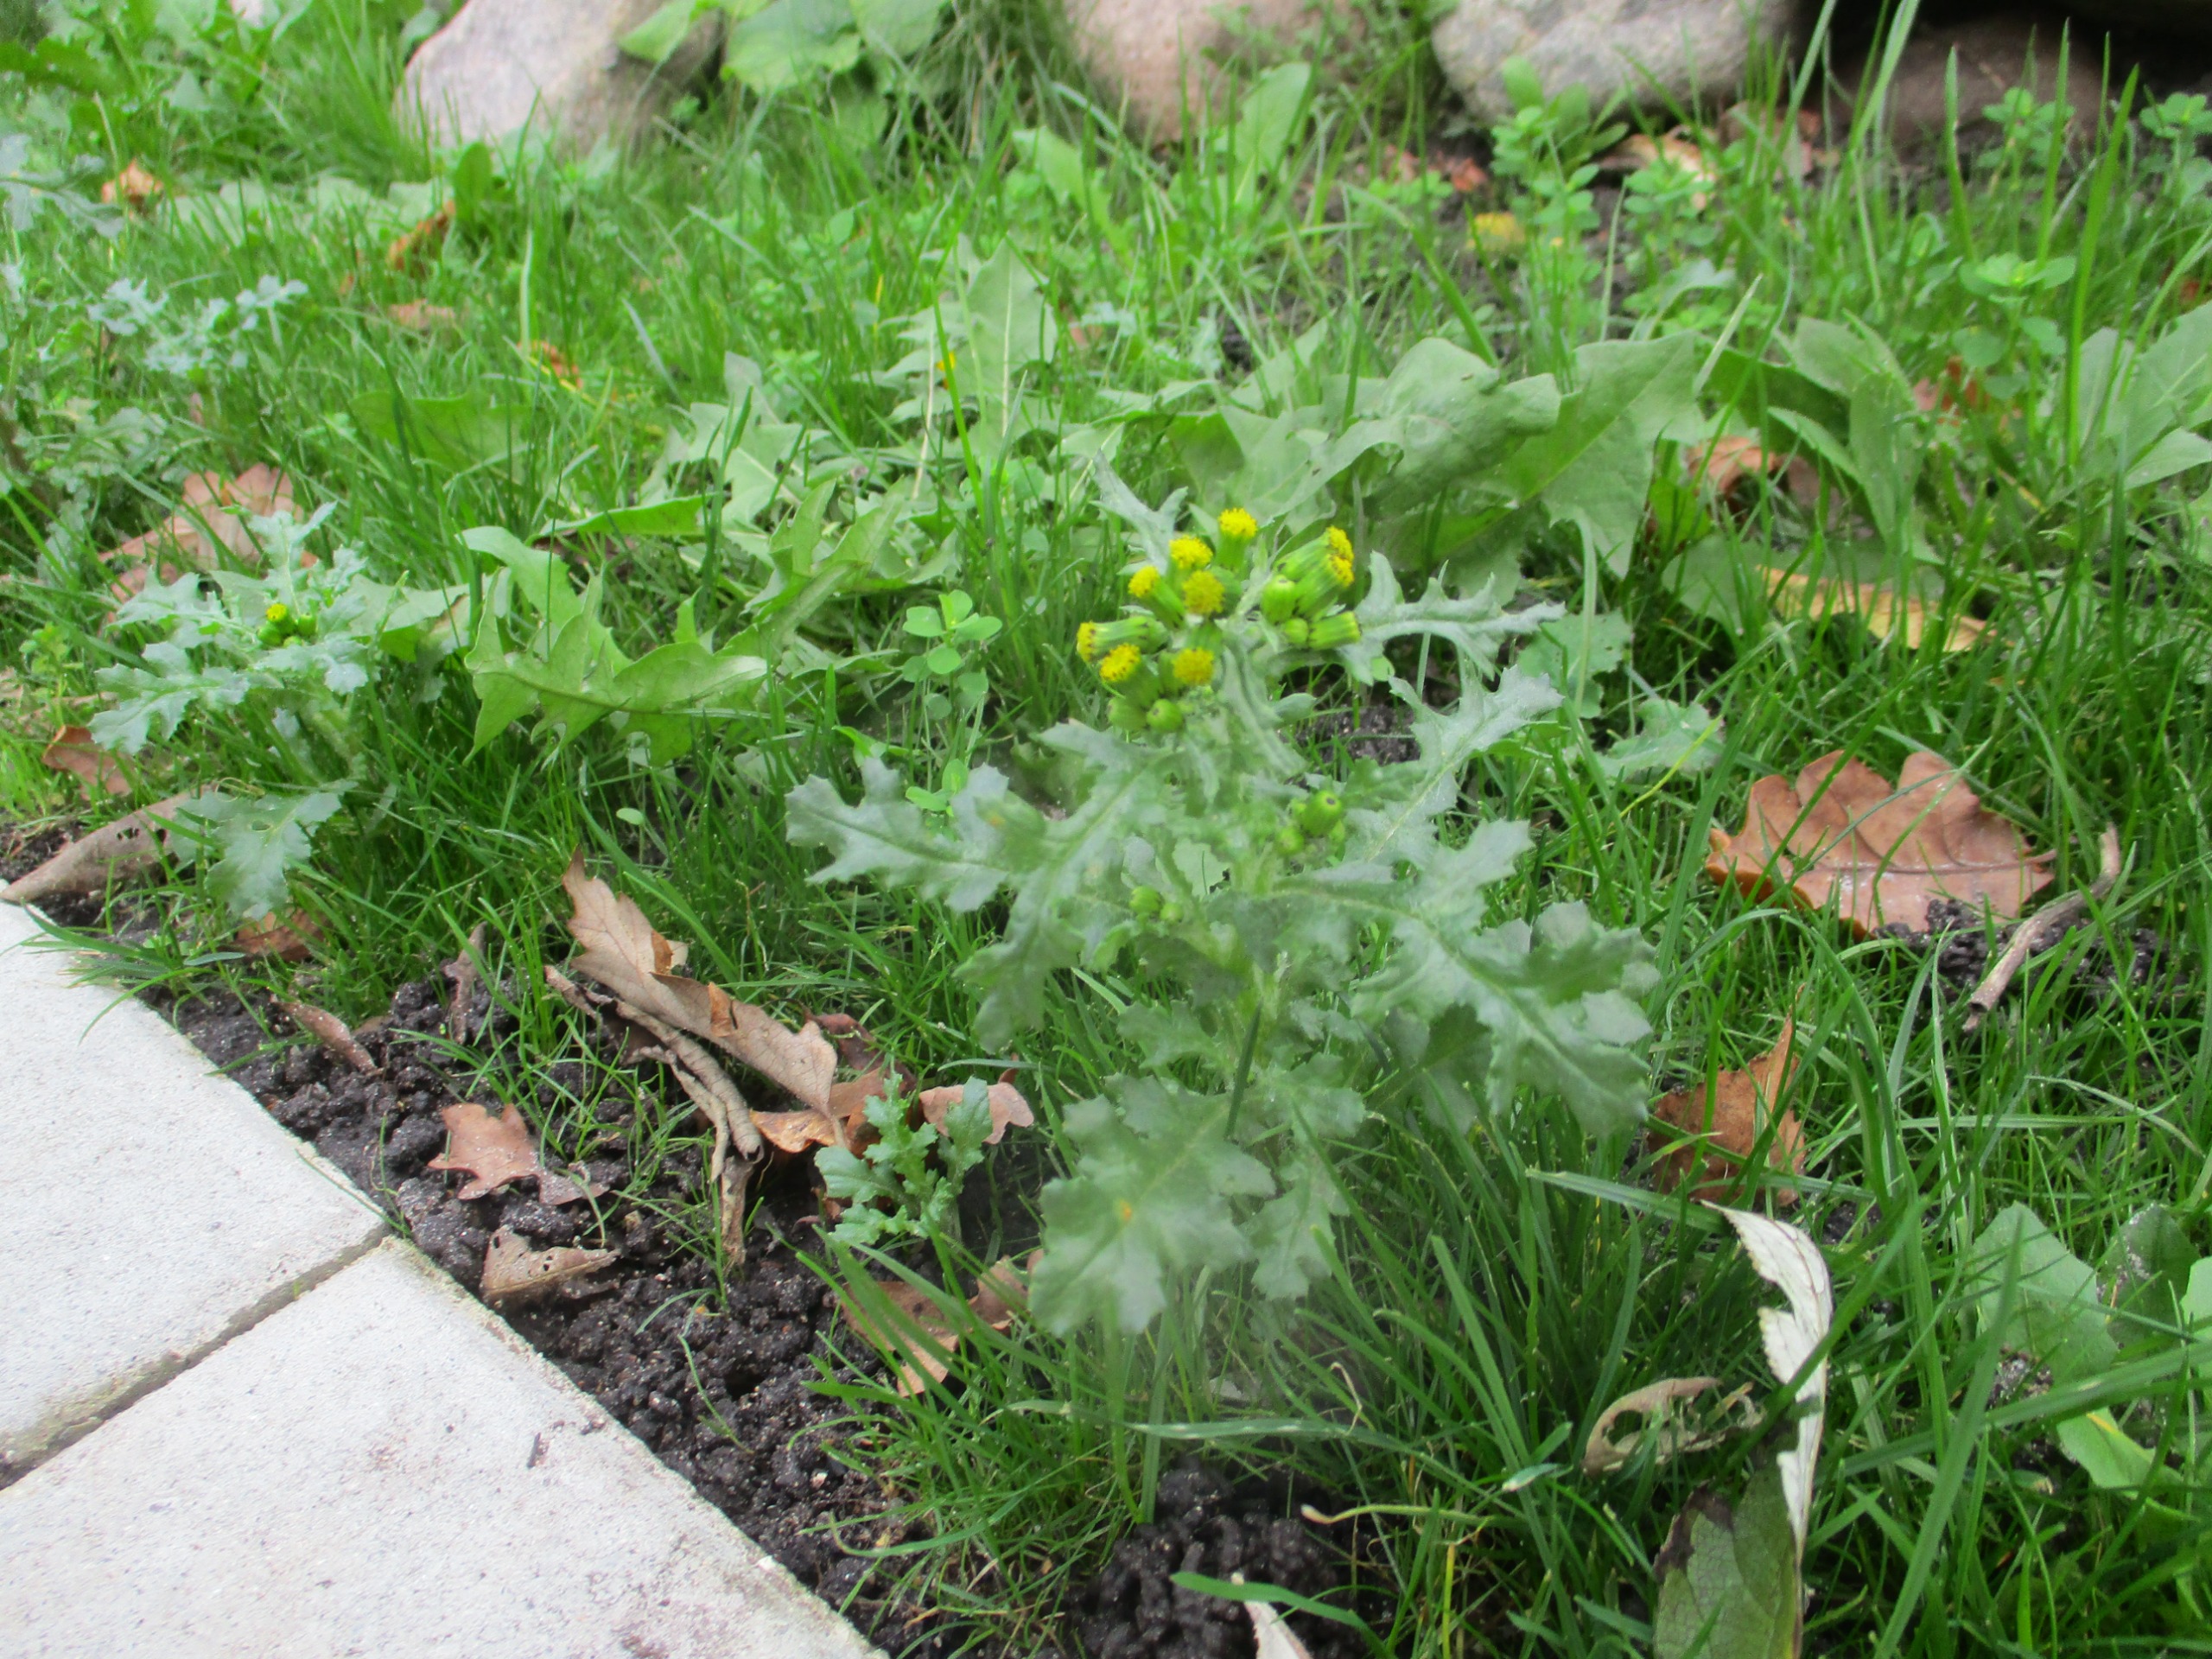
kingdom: Plantae
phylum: Tracheophyta
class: Magnoliopsida
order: Asterales
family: Asteraceae
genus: Senecio
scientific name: Senecio vulgaris
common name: Almindelig brandbæger
